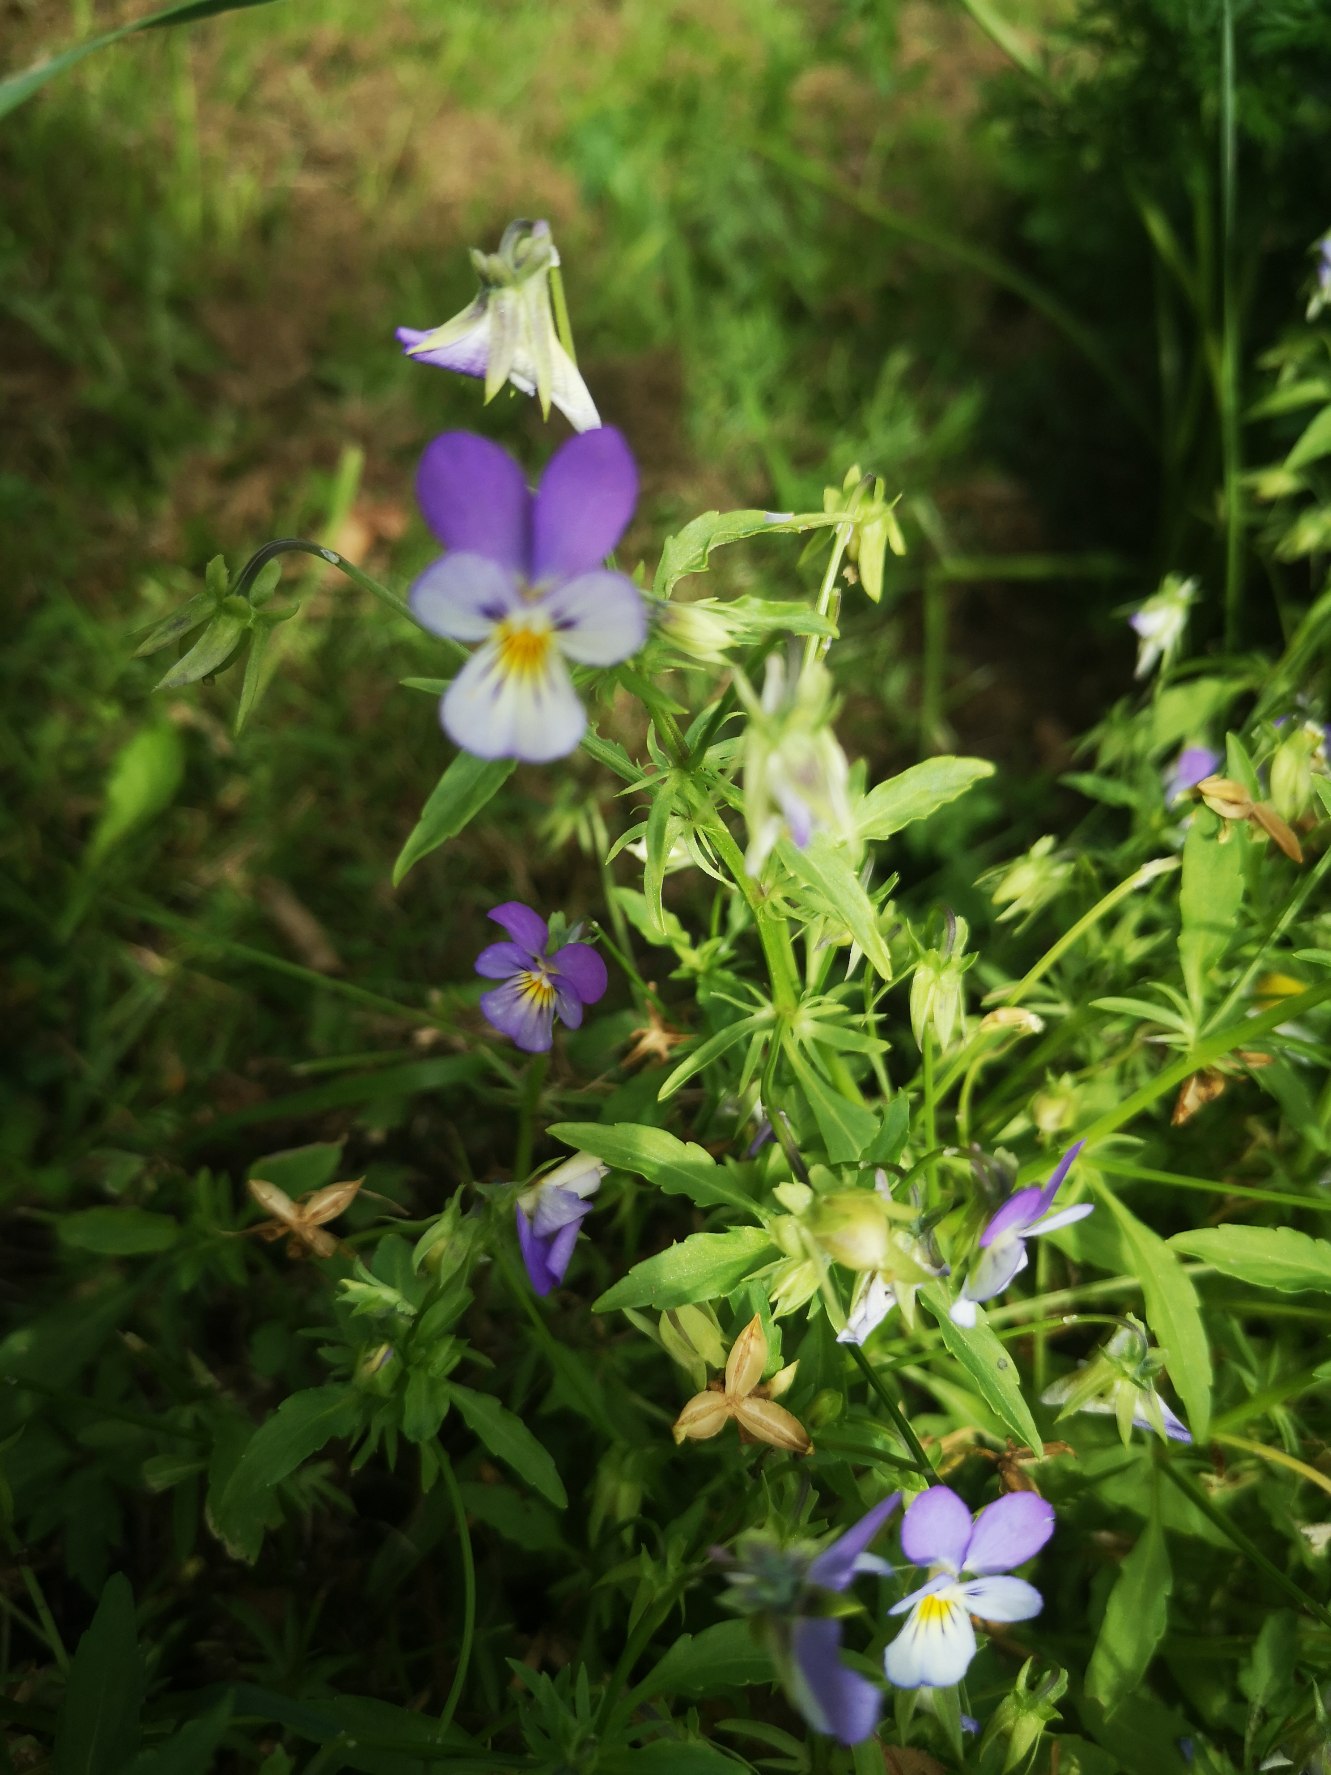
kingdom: Plantae
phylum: Tracheophyta
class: Magnoliopsida
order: Malpighiales
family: Violaceae
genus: Viola
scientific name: Viola tricolor
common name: Stedmoderblomst
